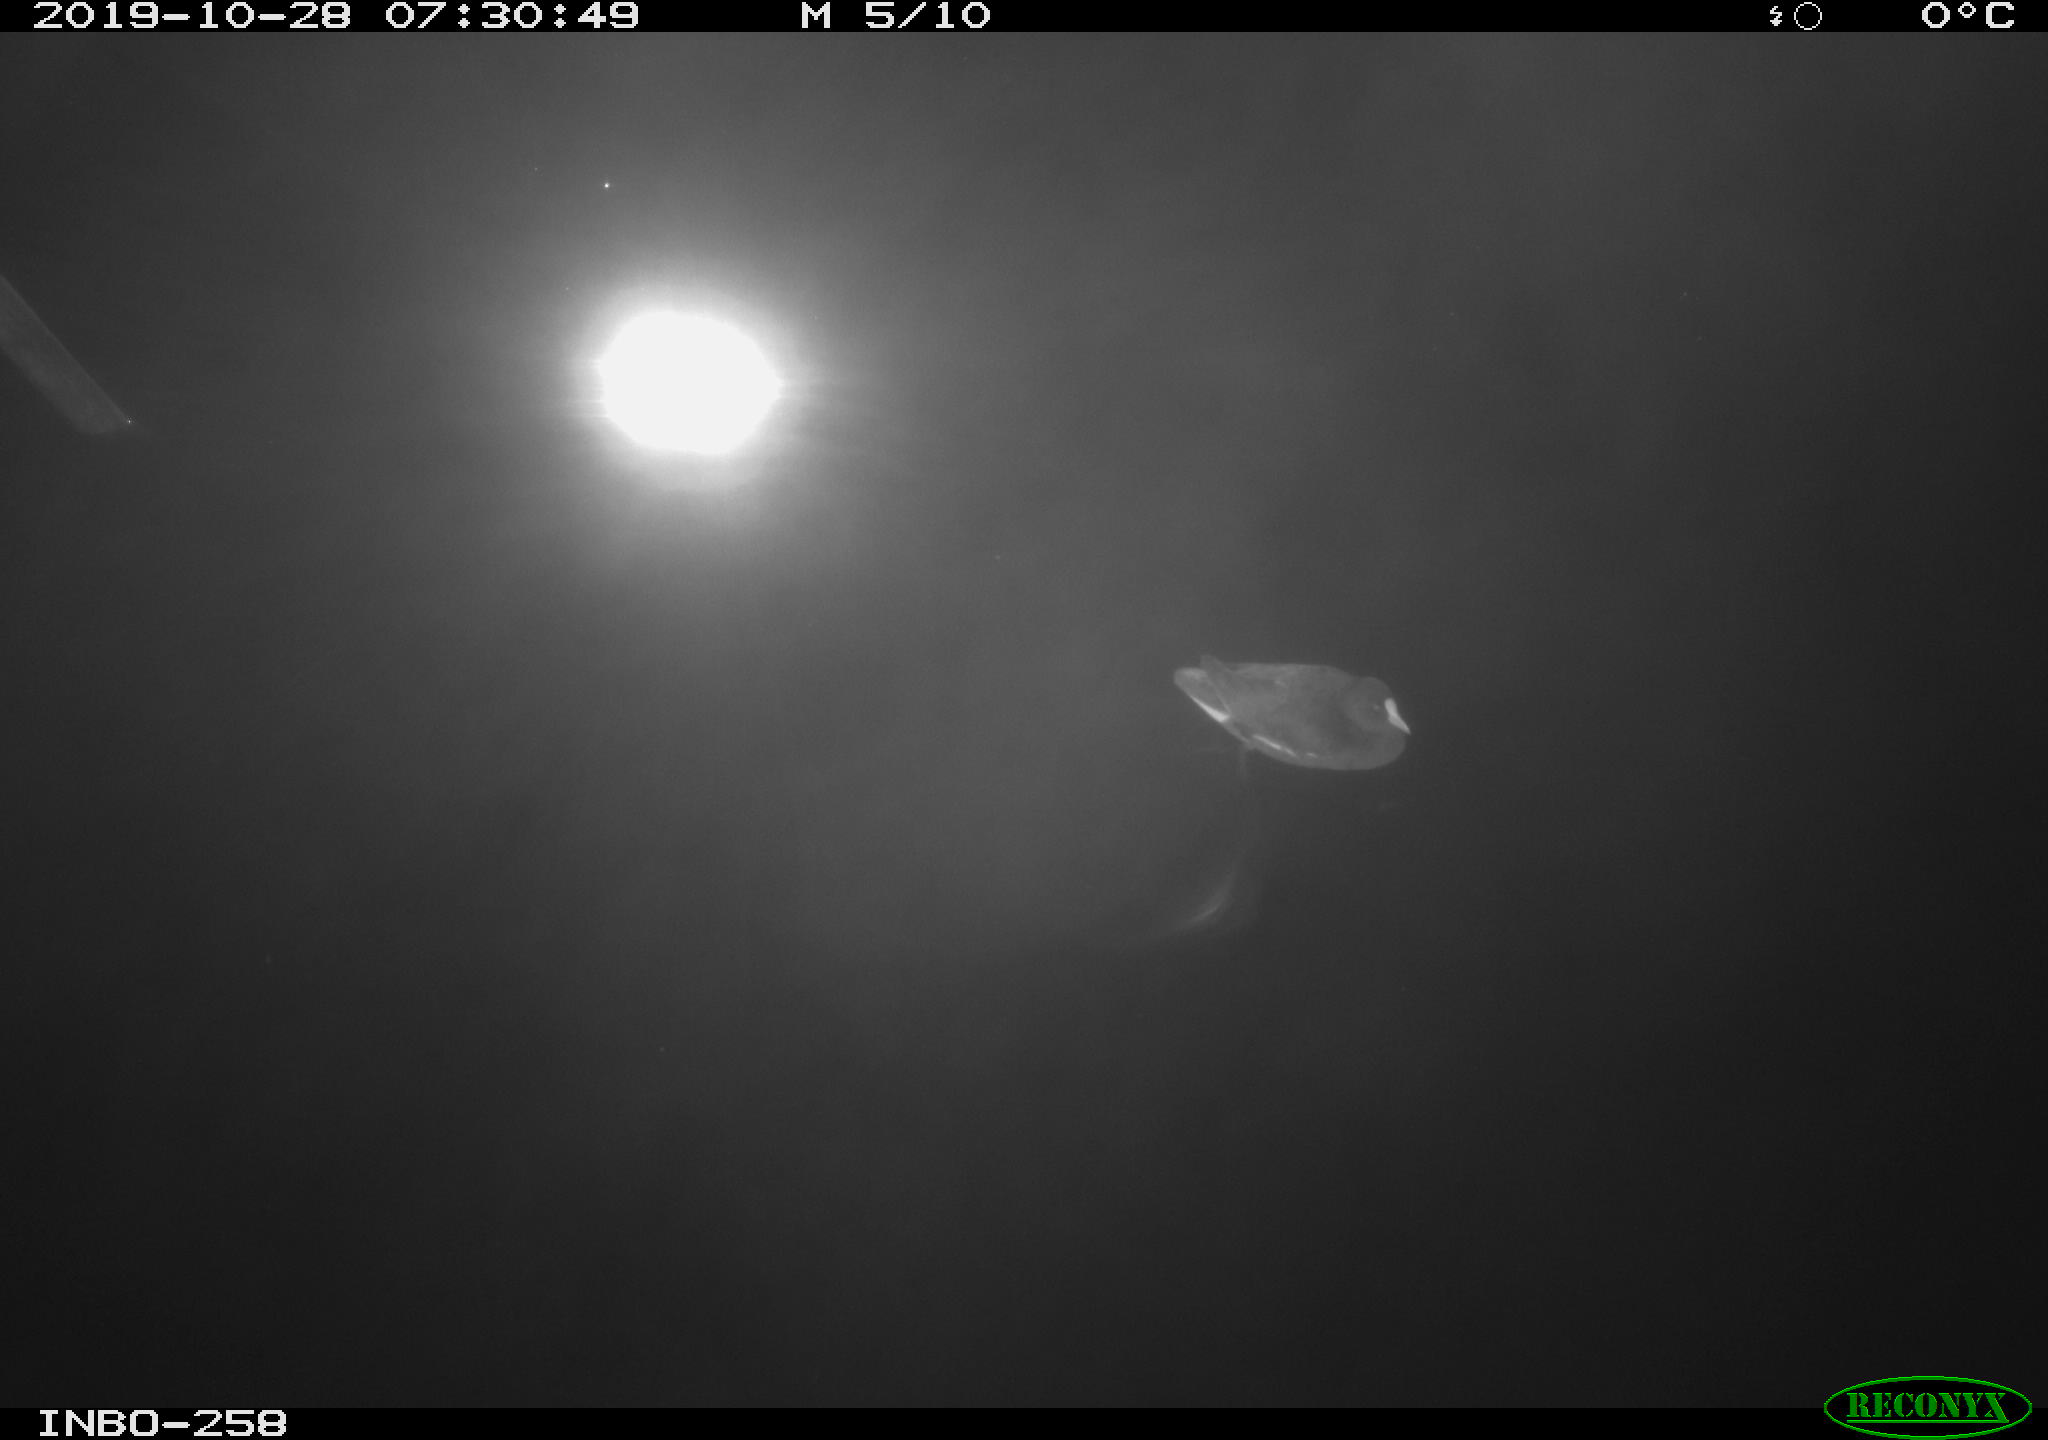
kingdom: Animalia
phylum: Chordata
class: Aves
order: Gruiformes
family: Rallidae
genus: Gallinula
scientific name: Gallinula chloropus
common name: Common moorhen
